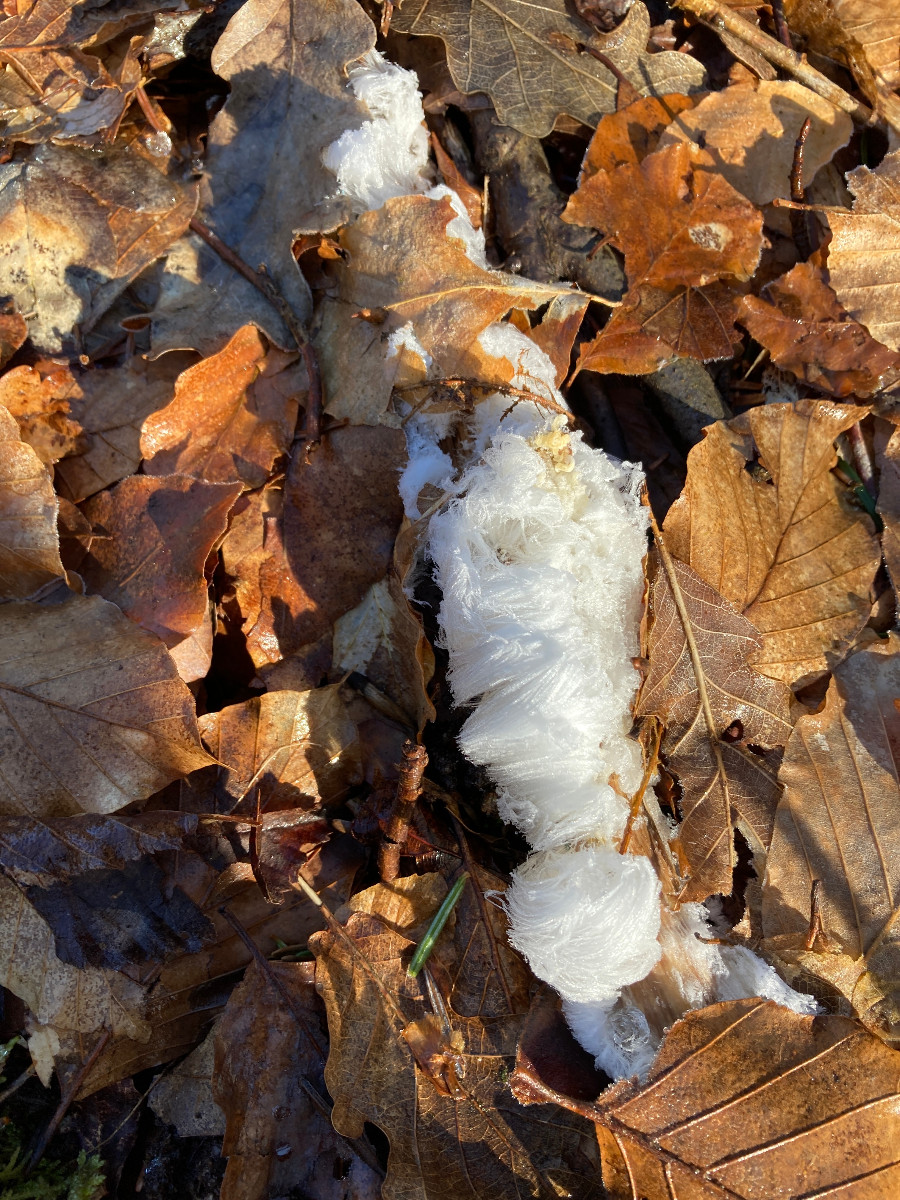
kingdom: Fungi
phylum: Basidiomycota
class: Tremellomycetes
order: Tremellales
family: Exidiaceae
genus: Exidiopsis
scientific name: Exidiopsis effusa
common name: smuk bævrehinde
